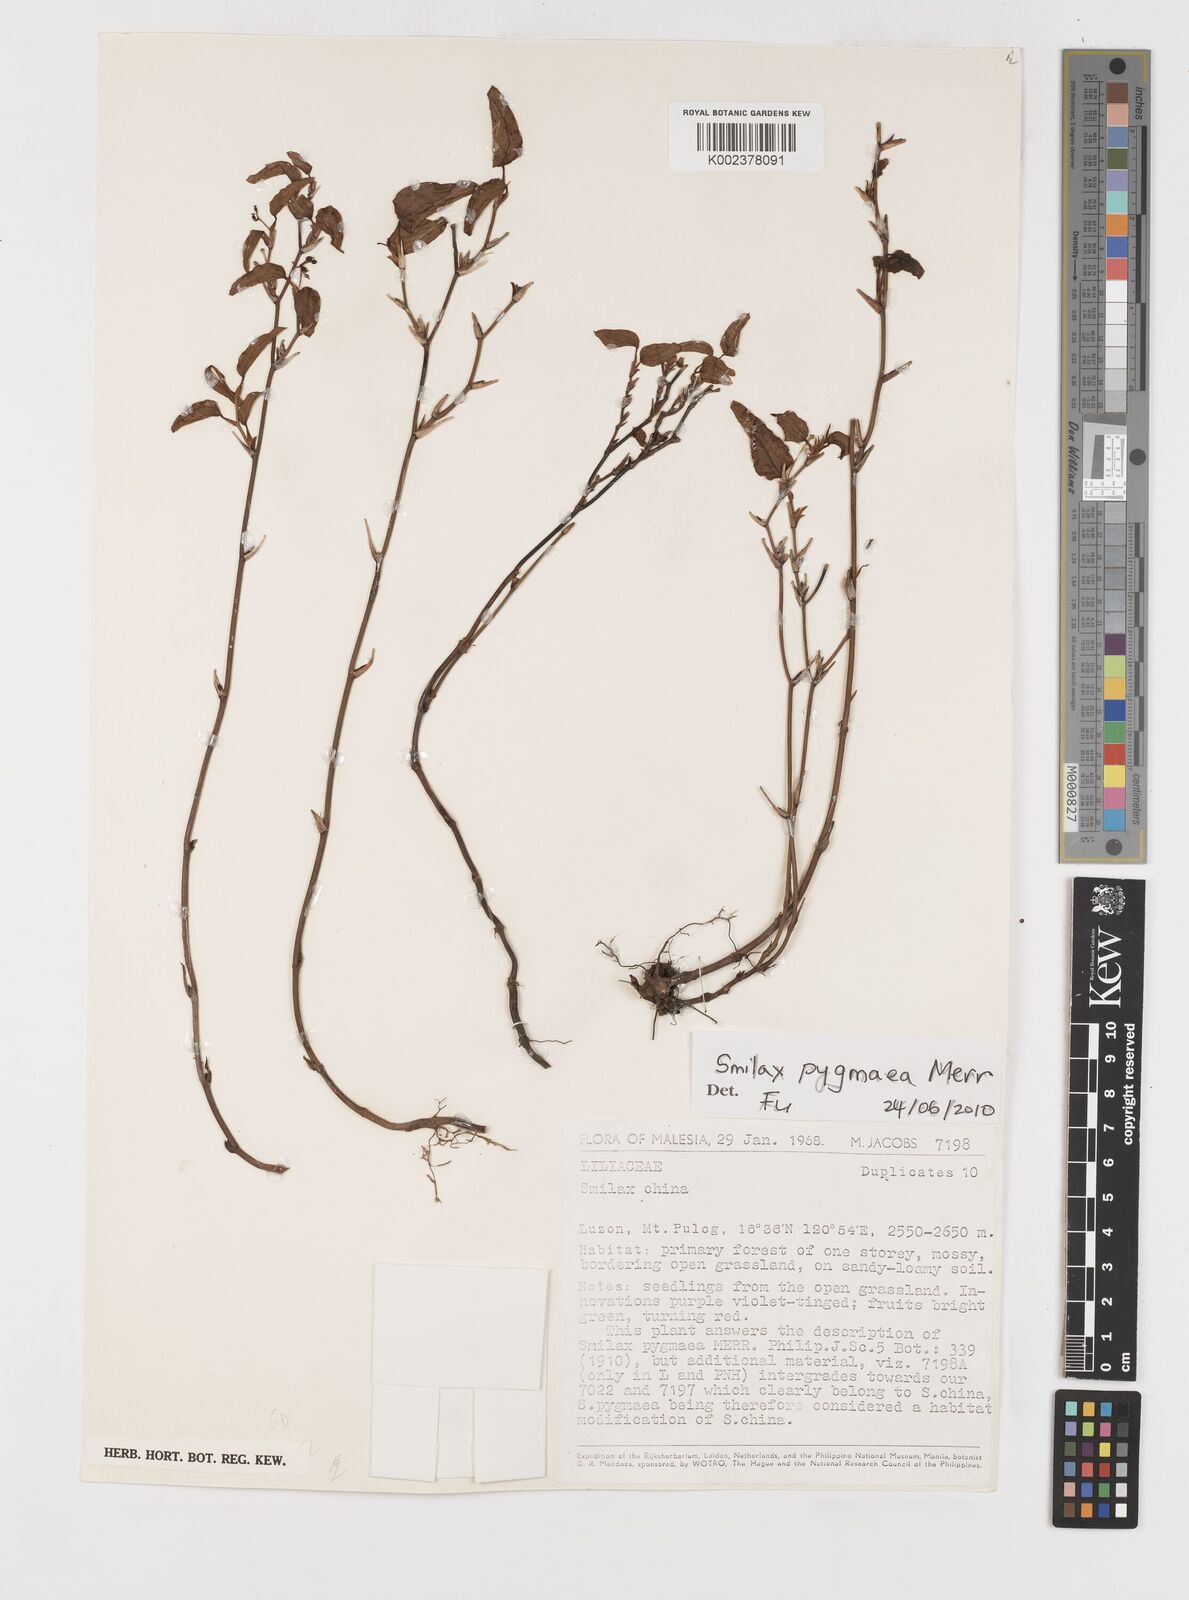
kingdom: Plantae
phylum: Tracheophyta
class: Liliopsida
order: Liliales
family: Smilacaceae
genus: Smilax
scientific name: Smilax pygmaea
